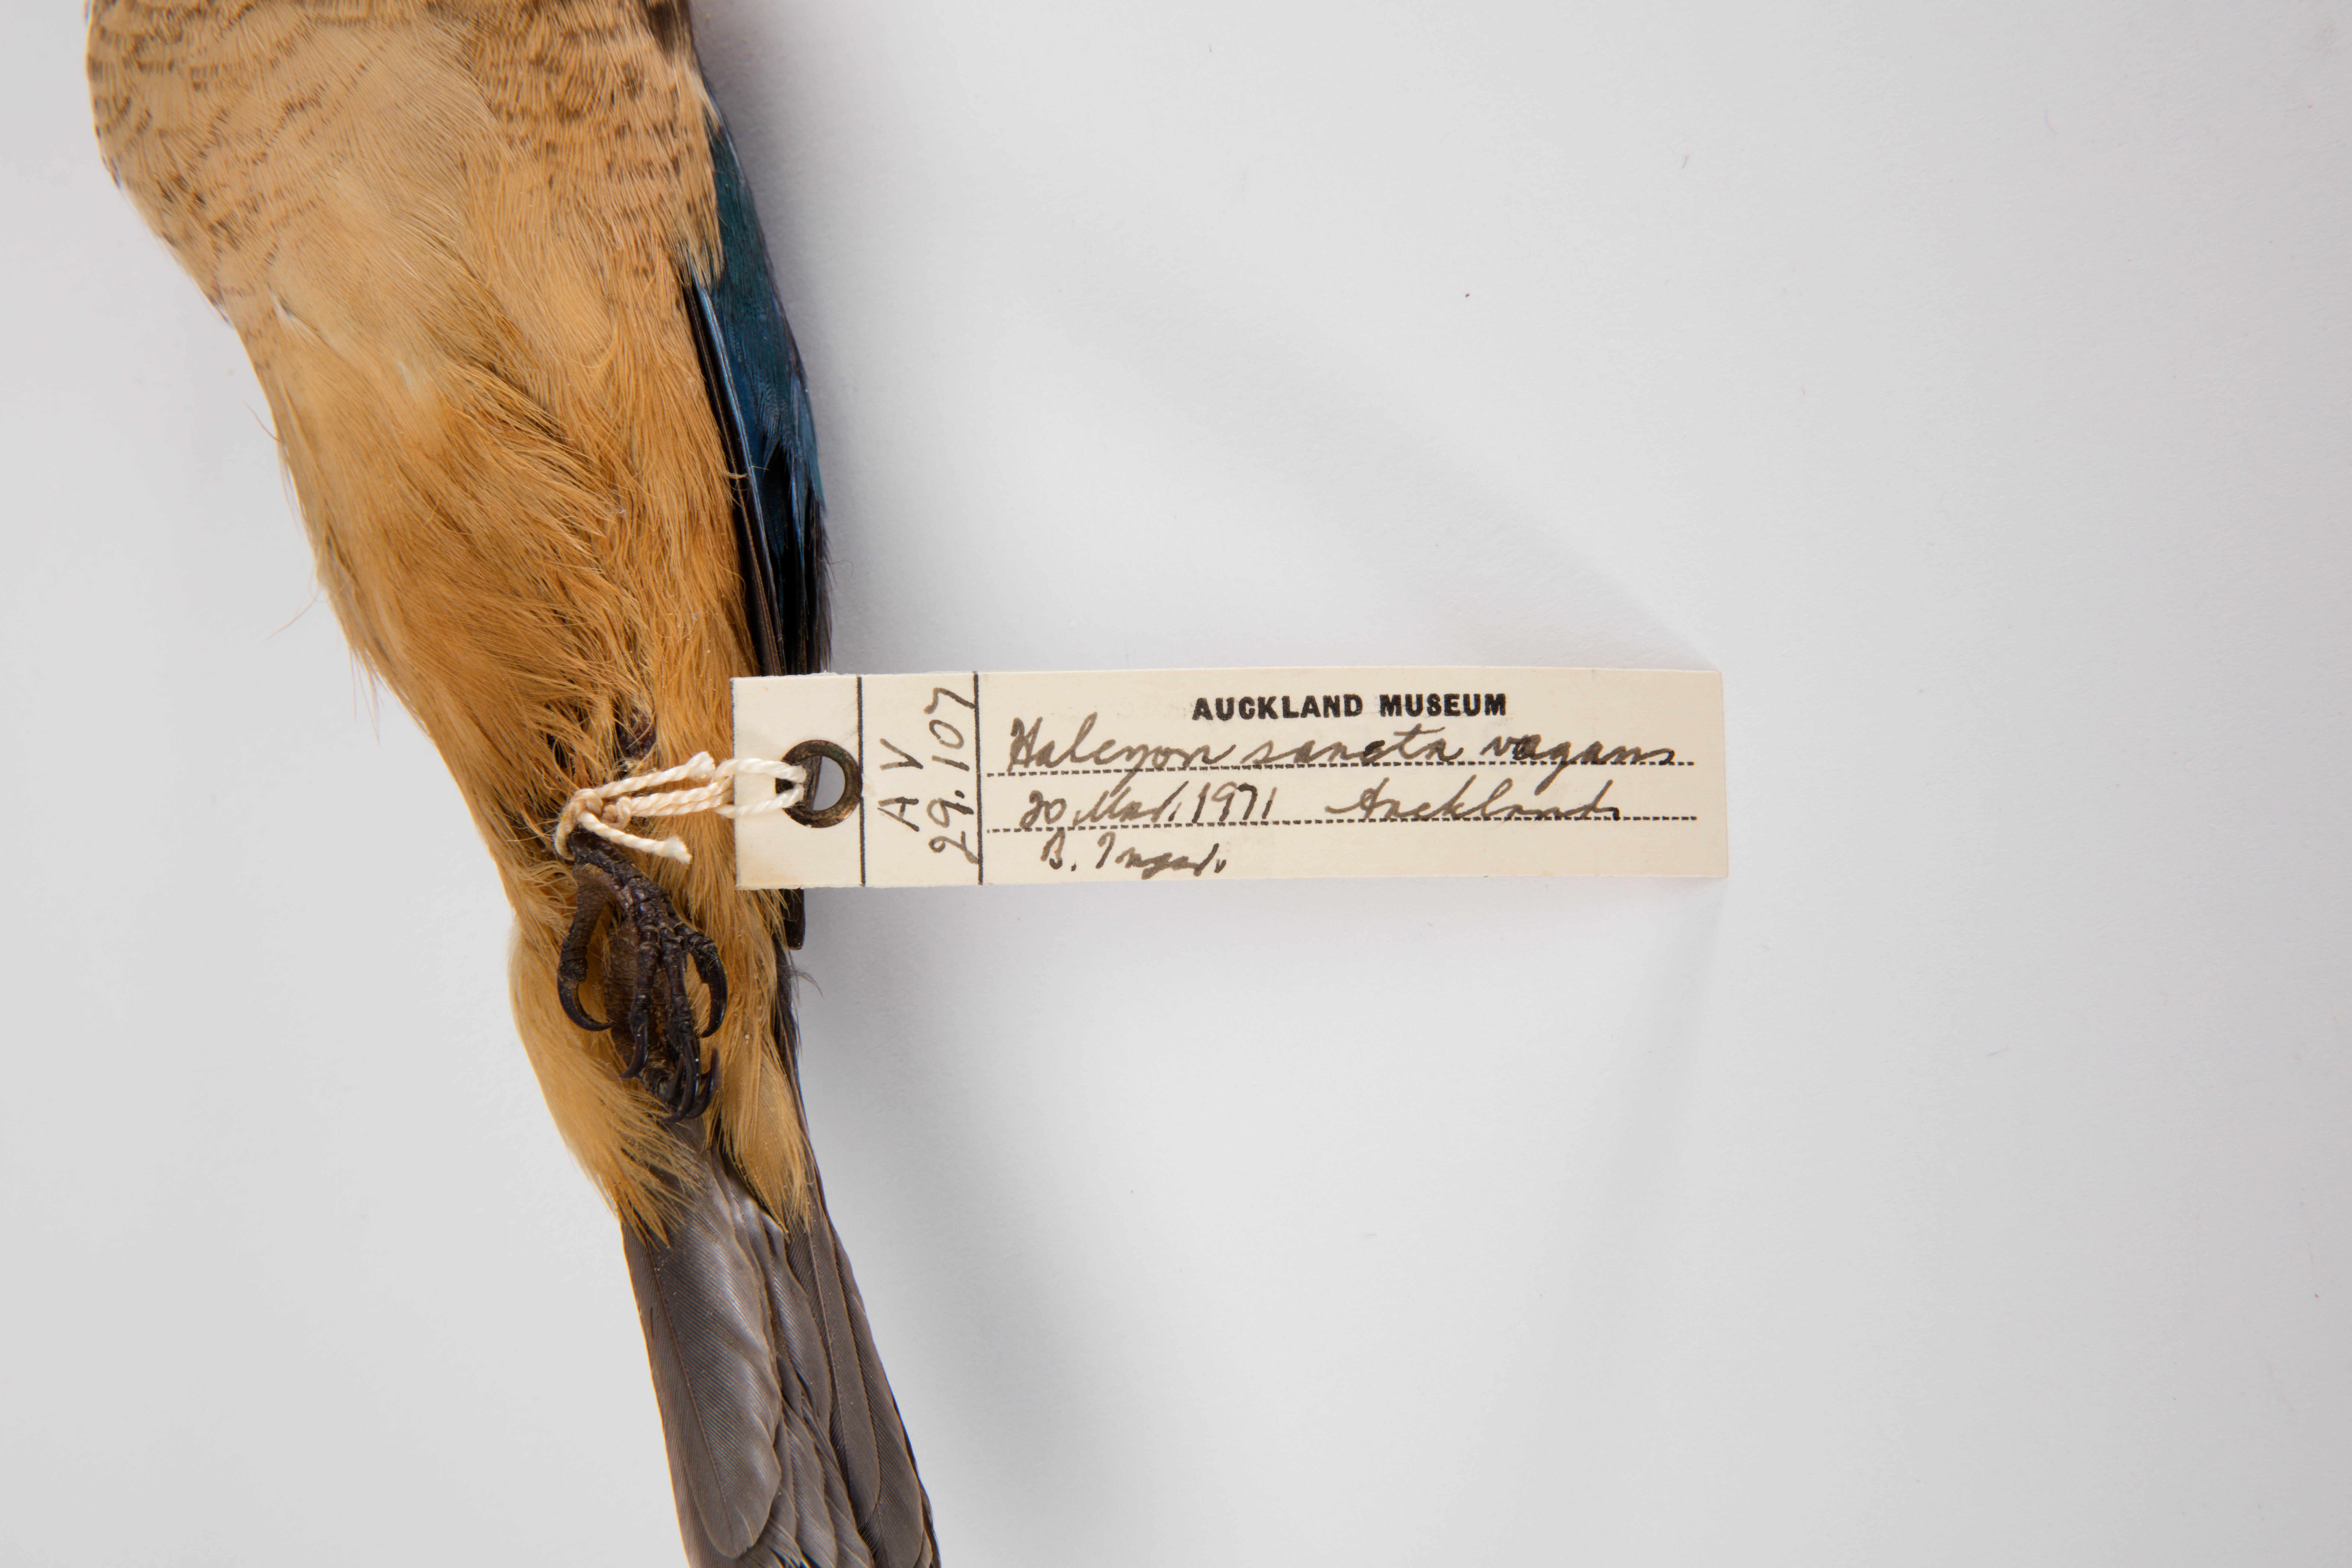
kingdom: Animalia
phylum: Chordata
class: Aves
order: Coraciiformes
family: Alcedinidae
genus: Todiramphus
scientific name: Todiramphus sanctus
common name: Sacred kingfisher
